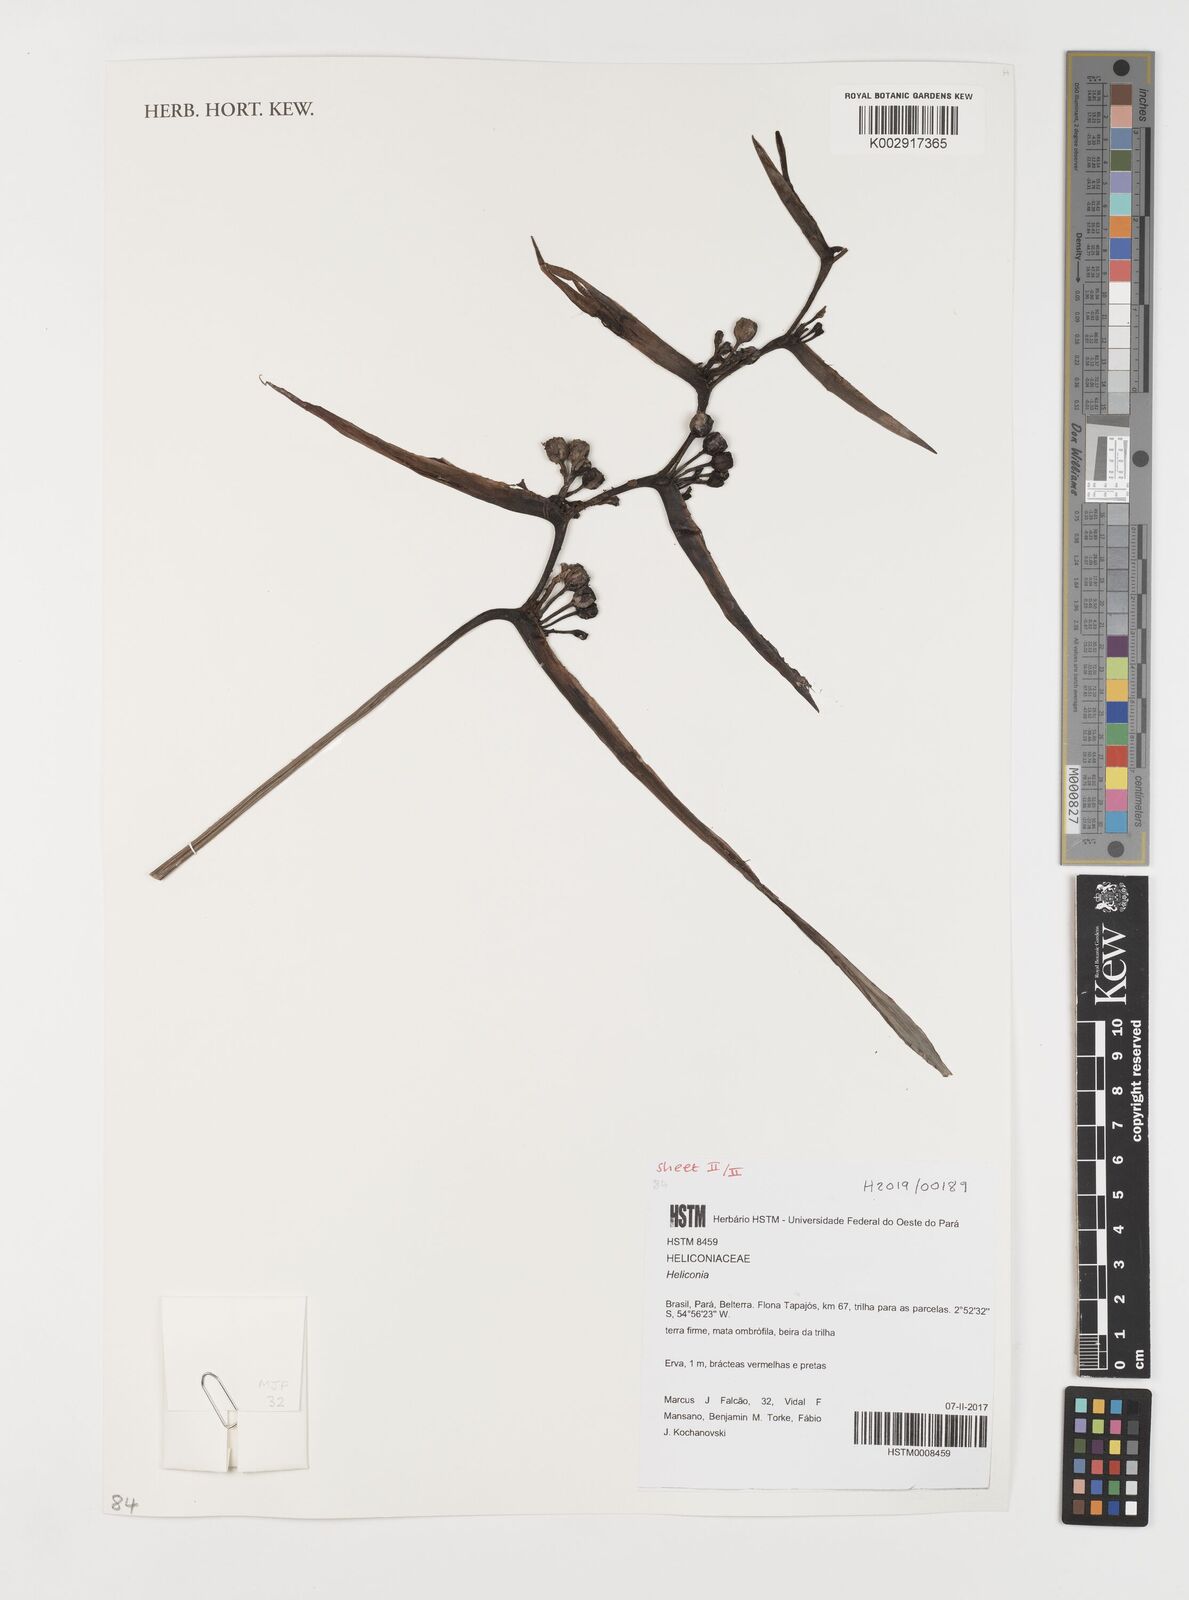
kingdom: Plantae
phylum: Tracheophyta
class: Liliopsida
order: Zingiberales
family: Heliconiaceae
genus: Heliconia
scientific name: Heliconia
